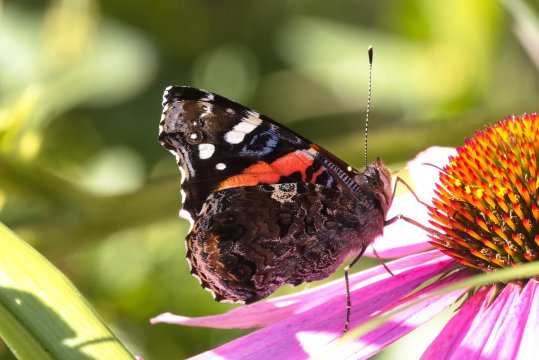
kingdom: Animalia
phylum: Arthropoda
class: Insecta
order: Lepidoptera
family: Nymphalidae
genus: Vanessa
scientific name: Vanessa atalanta
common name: Red Admiral
